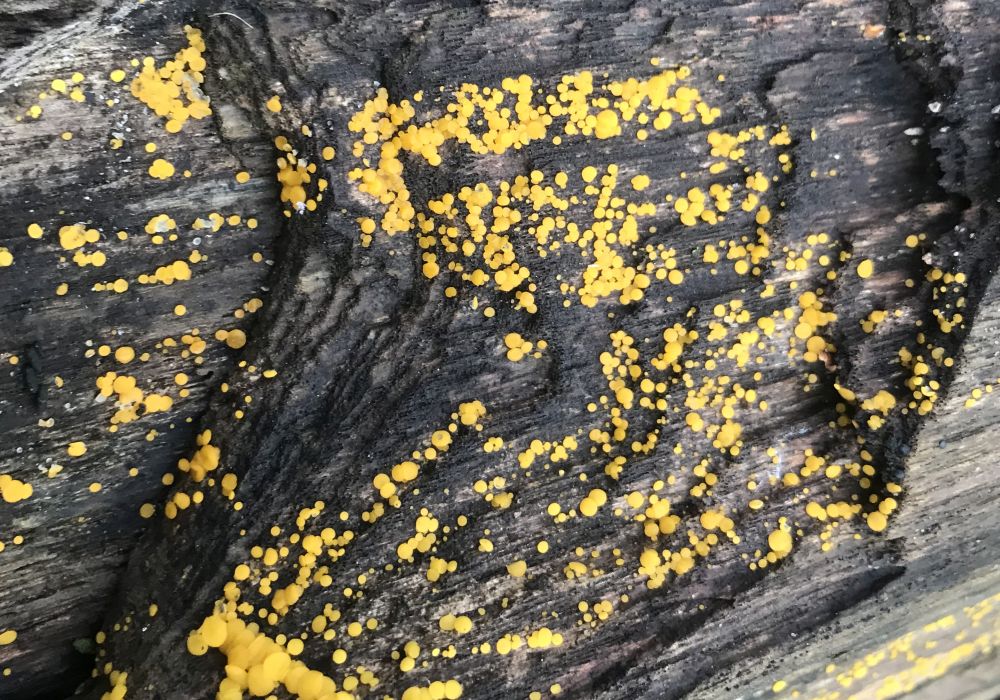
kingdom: Fungi
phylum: Ascomycota
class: Leotiomycetes
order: Helotiales
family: Pezizellaceae
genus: Calycina
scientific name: Calycina citrina
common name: almindelig gulskive
